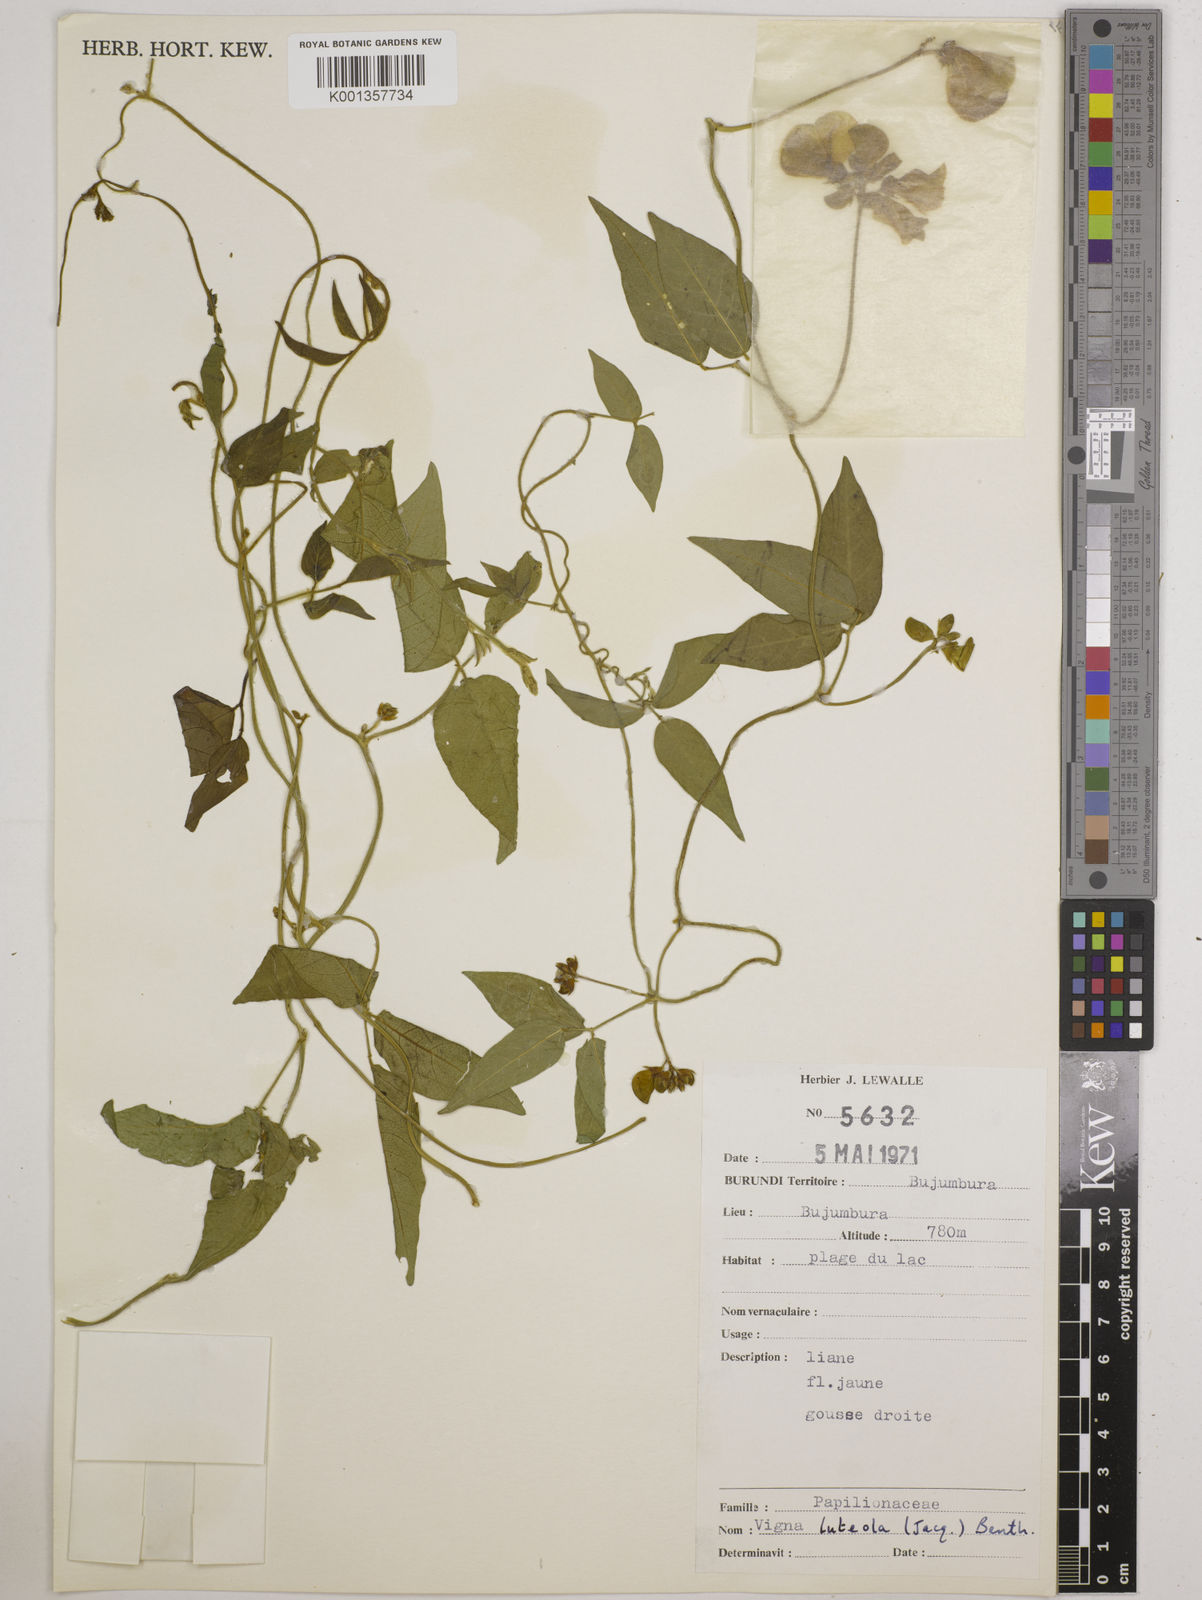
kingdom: Plantae
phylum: Tracheophyta
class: Magnoliopsida
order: Fabales
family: Fabaceae
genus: Vigna
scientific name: Vigna luteola
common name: Hairypod cowpea
